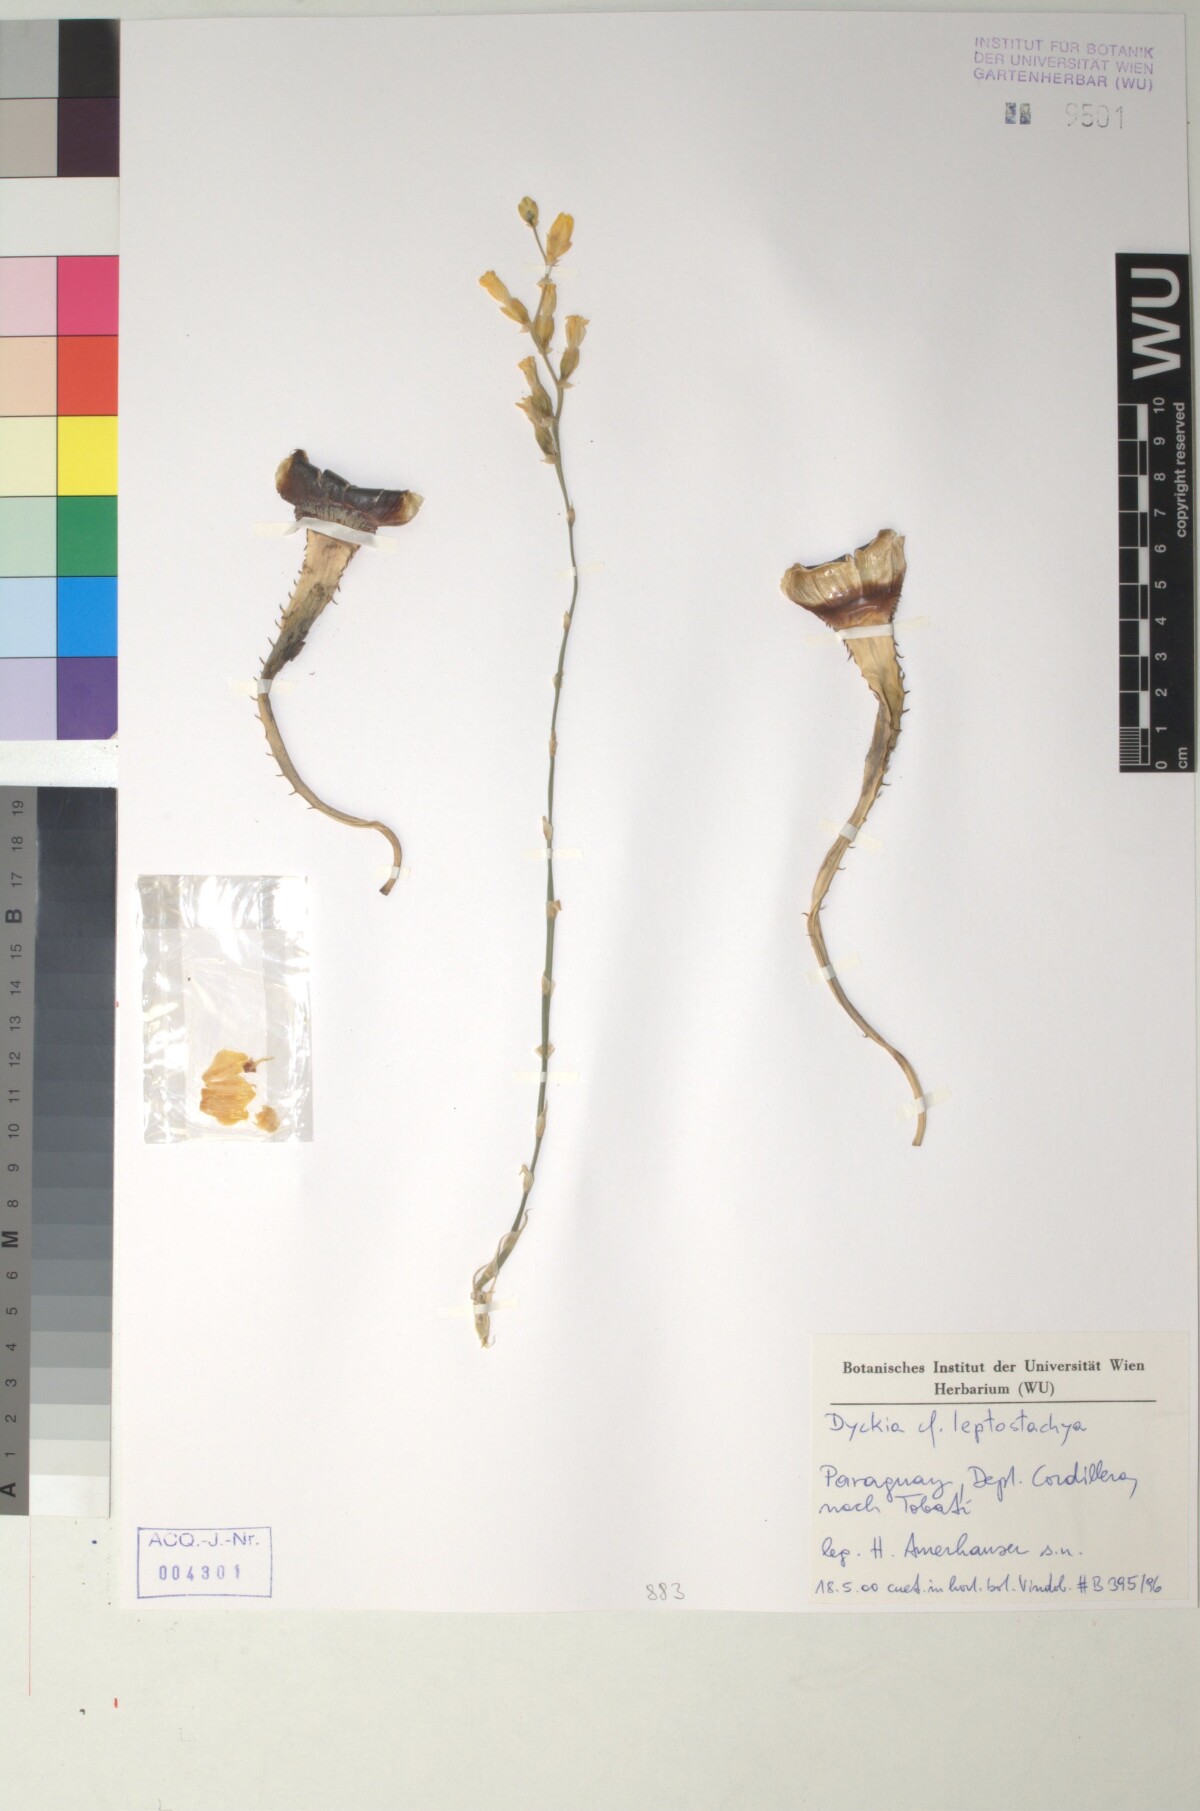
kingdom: Plantae
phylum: Tracheophyta
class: Liliopsida
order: Poales
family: Bromeliaceae
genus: Dyckia
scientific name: Dyckia leptostachya
